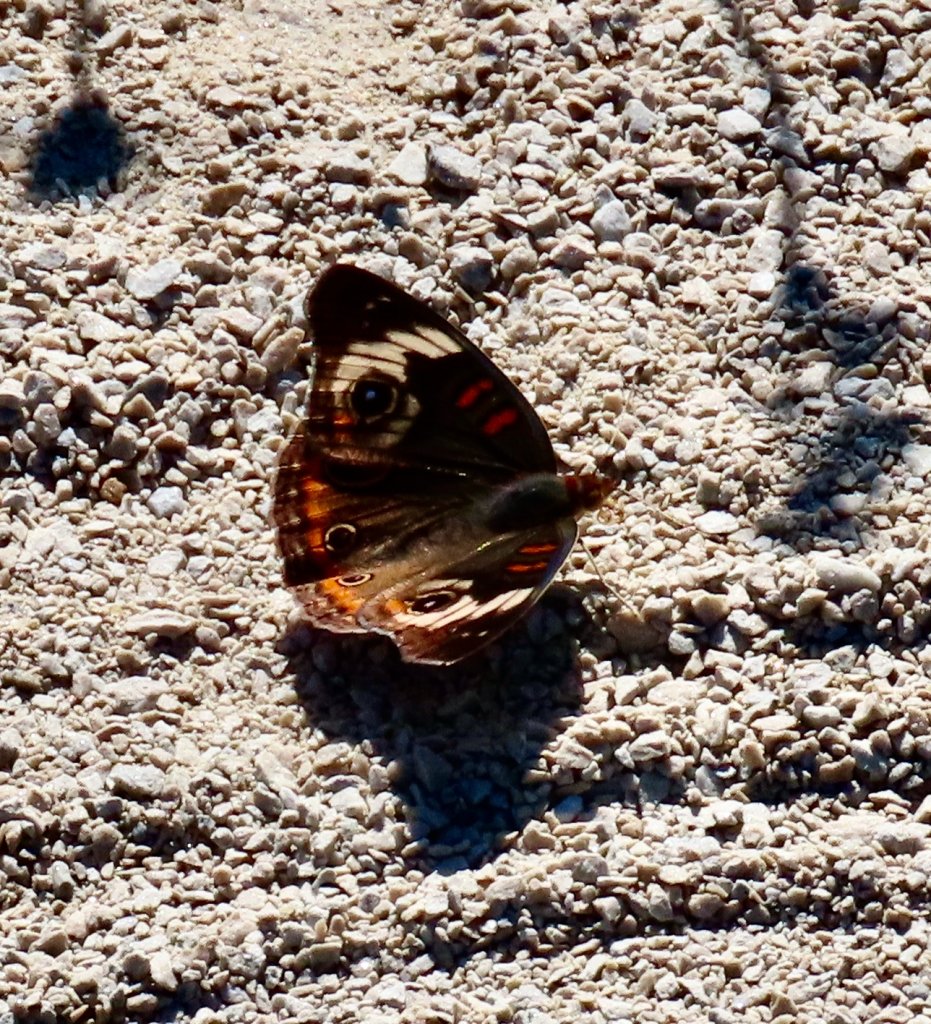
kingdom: Animalia
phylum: Arthropoda
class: Insecta
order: Lepidoptera
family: Nymphalidae
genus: Junonia
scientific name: Junonia coenia
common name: Common Buckeye
